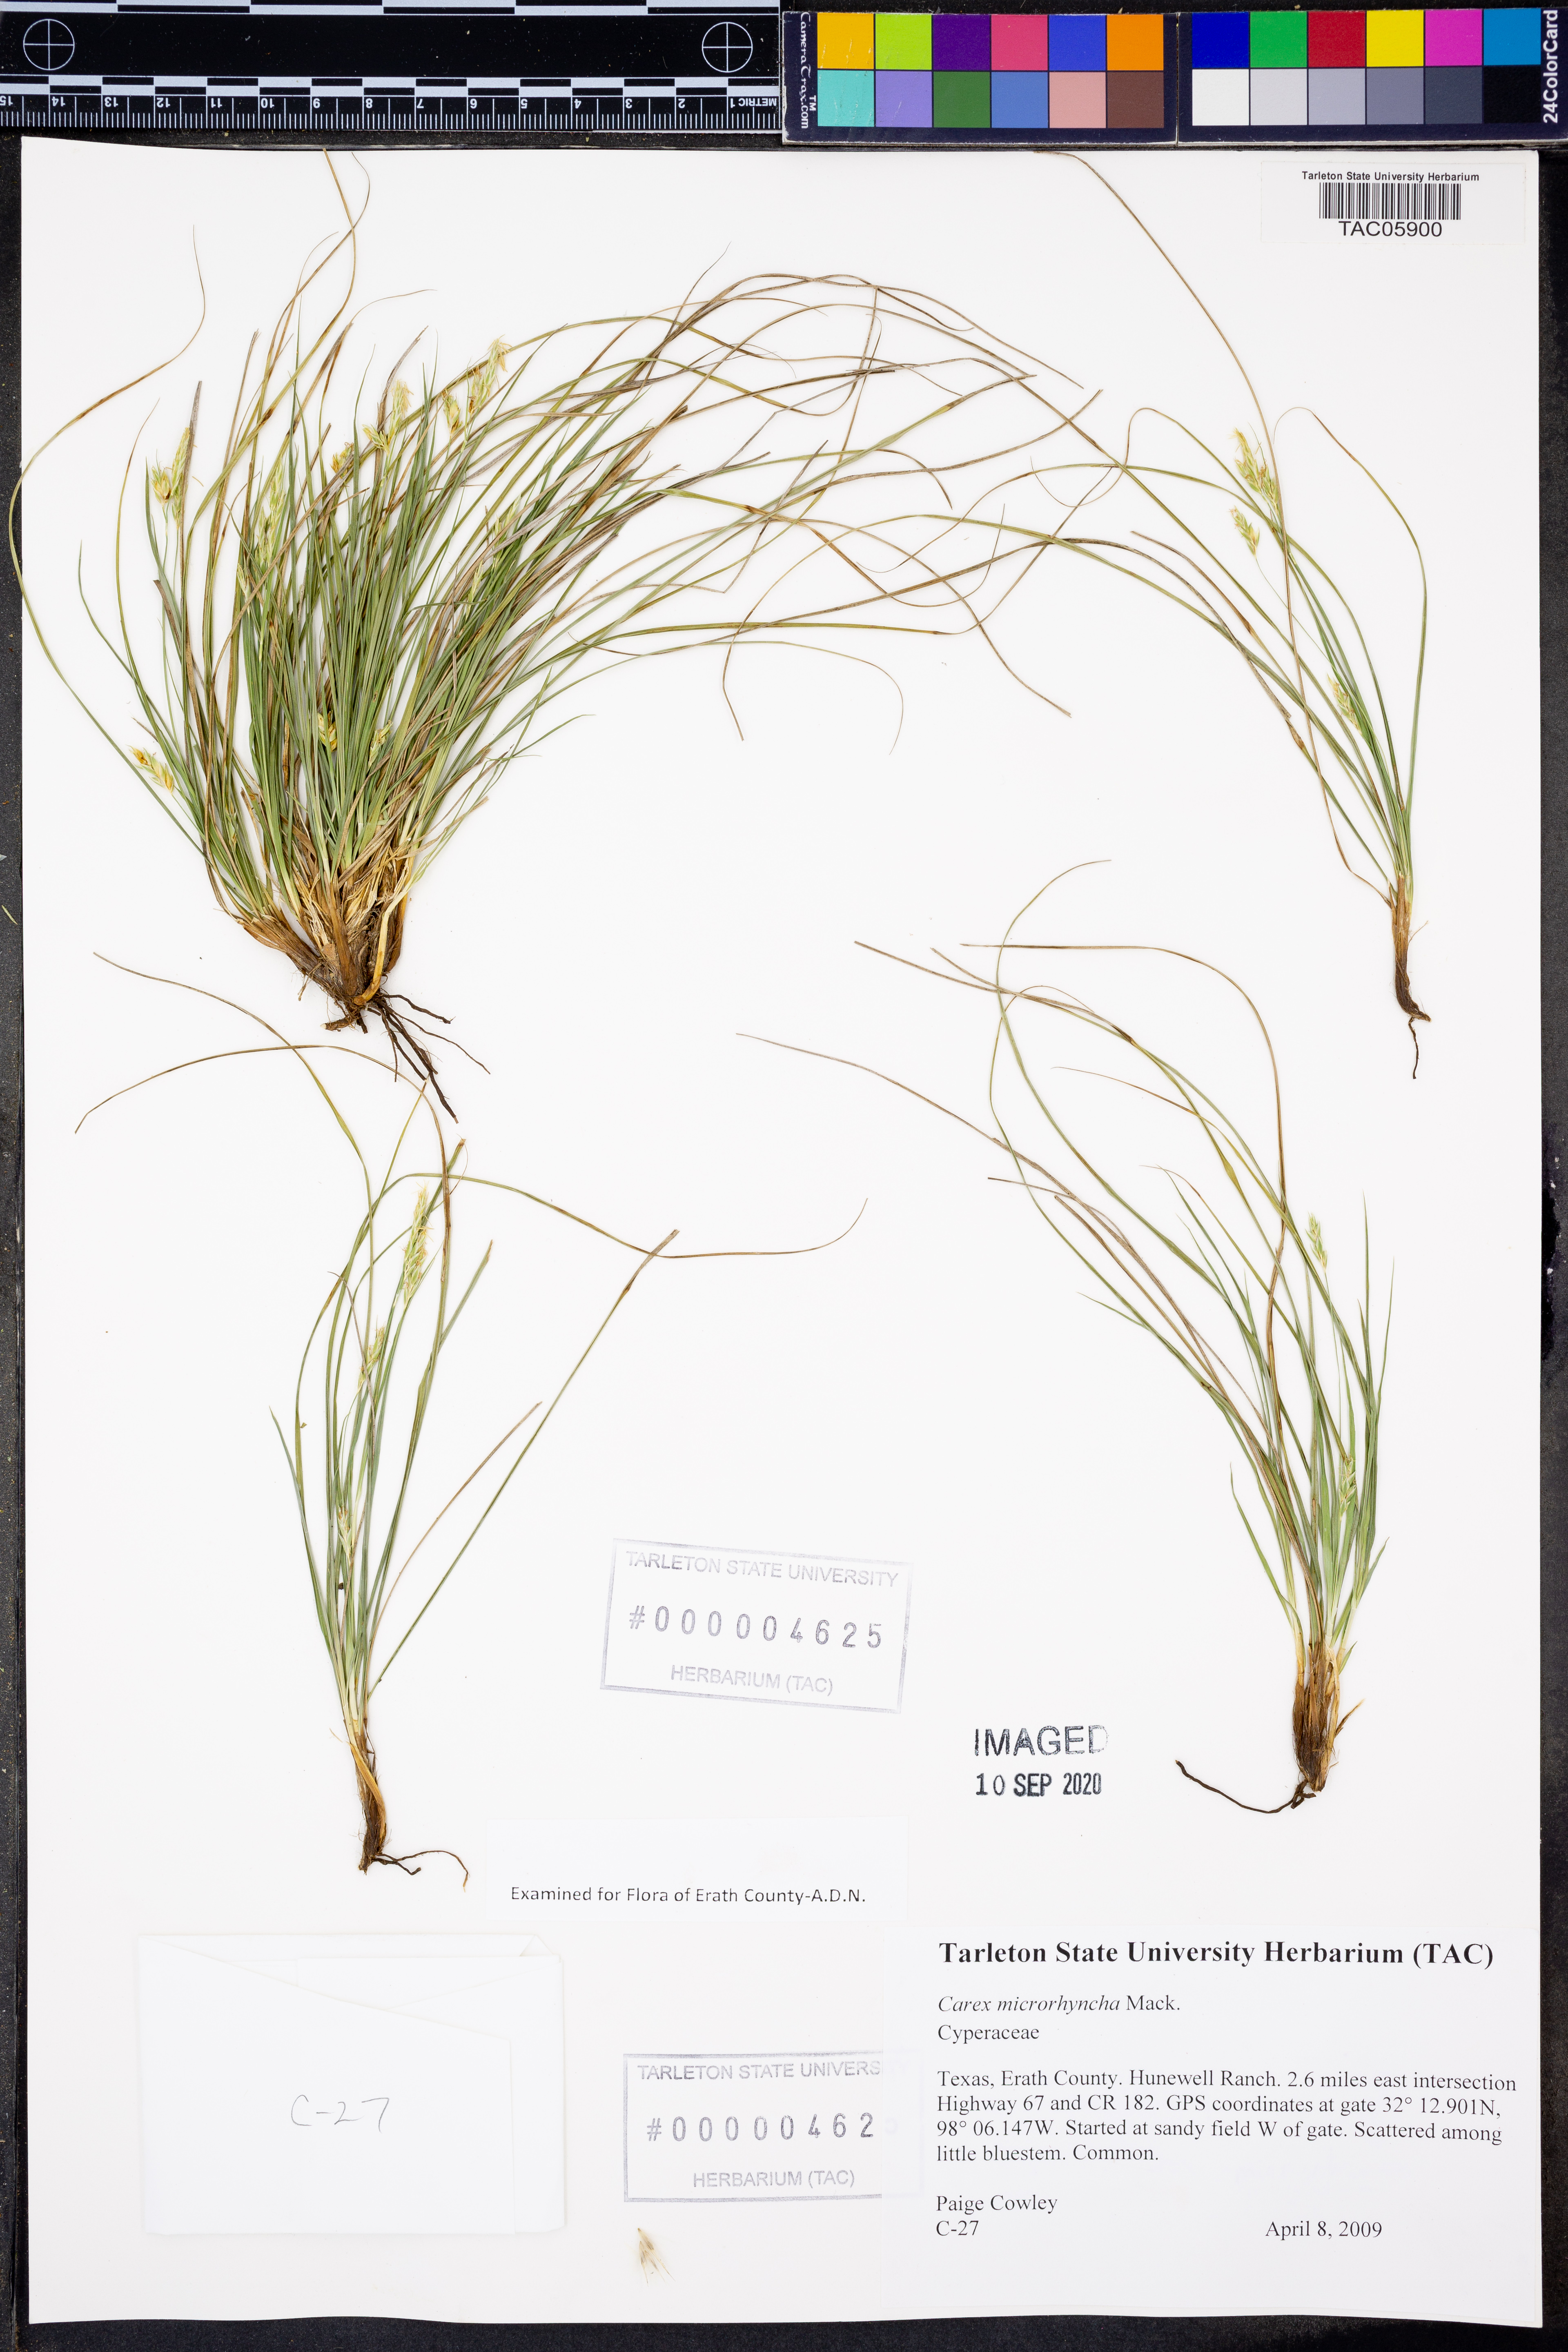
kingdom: Plantae
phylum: Tracheophyta
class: Liliopsida
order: Poales
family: Cyperaceae
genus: Carex
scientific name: Carex microrhyncha
